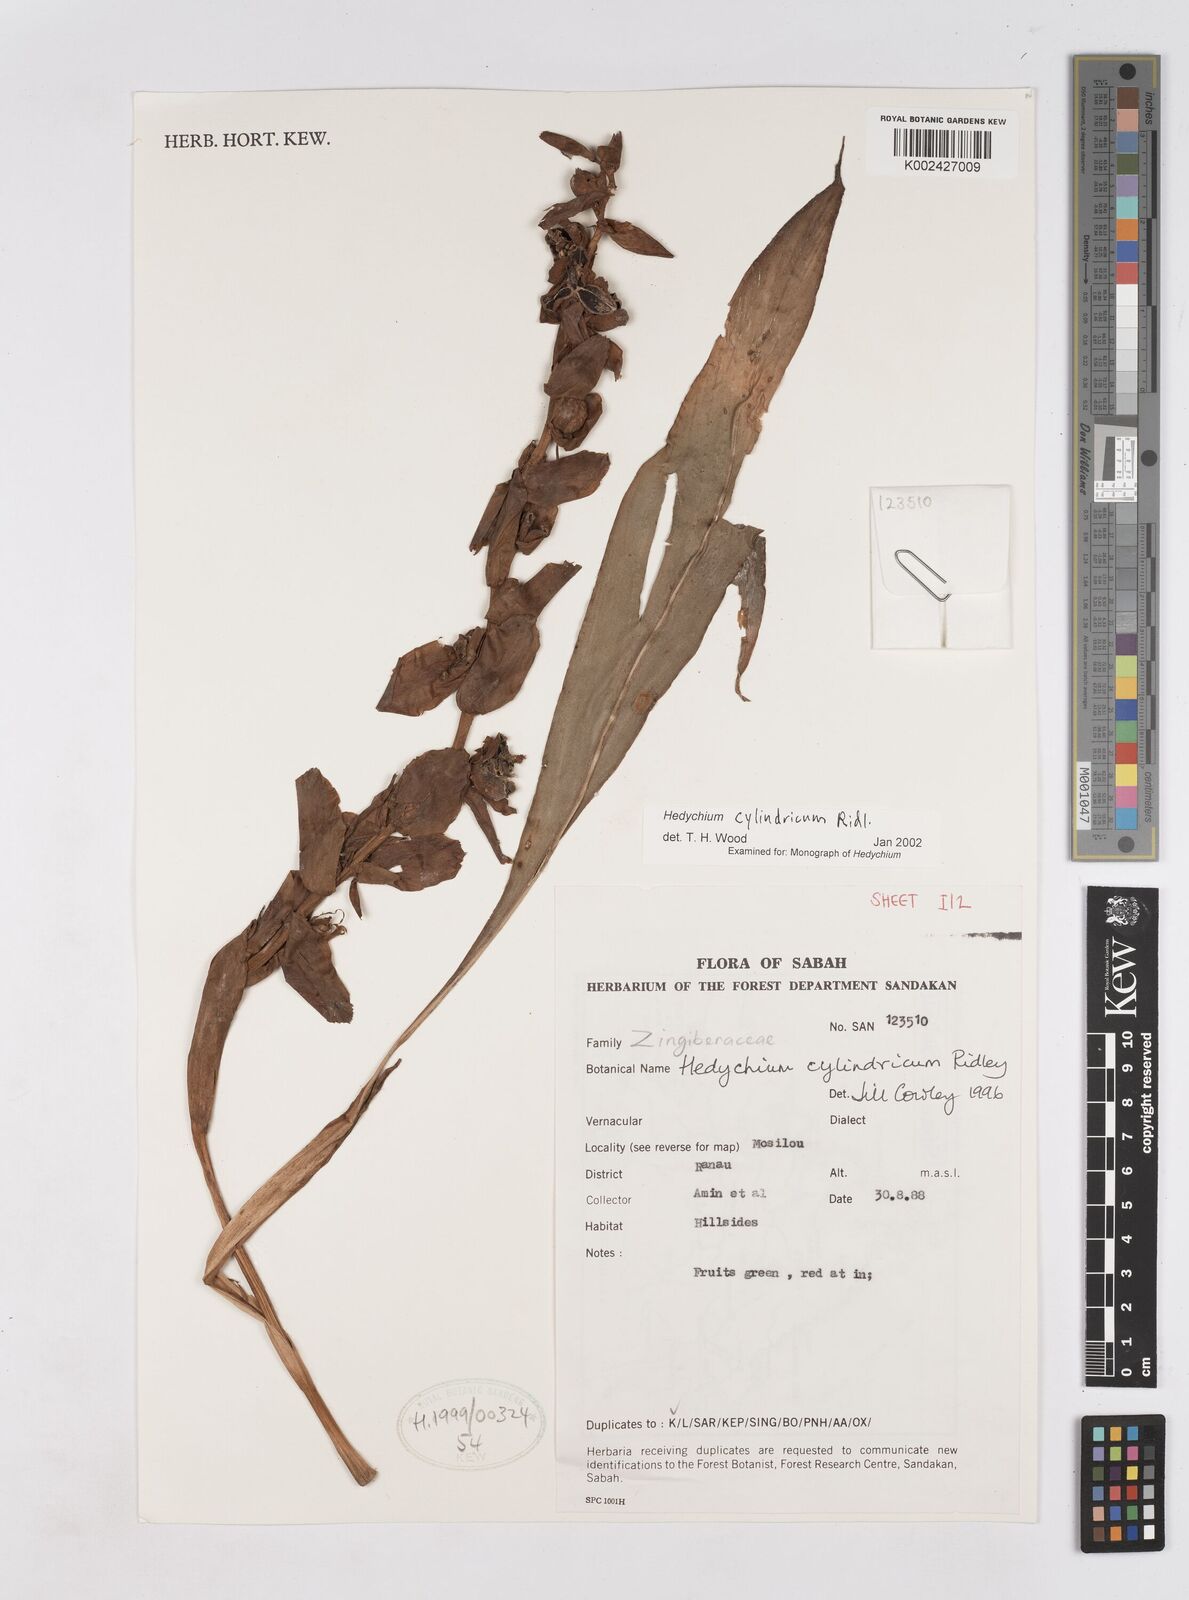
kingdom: Plantae
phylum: Tracheophyta
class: Liliopsida
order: Zingiberales
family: Zingiberaceae
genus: Hedychium
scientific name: Hedychium cylindricum
